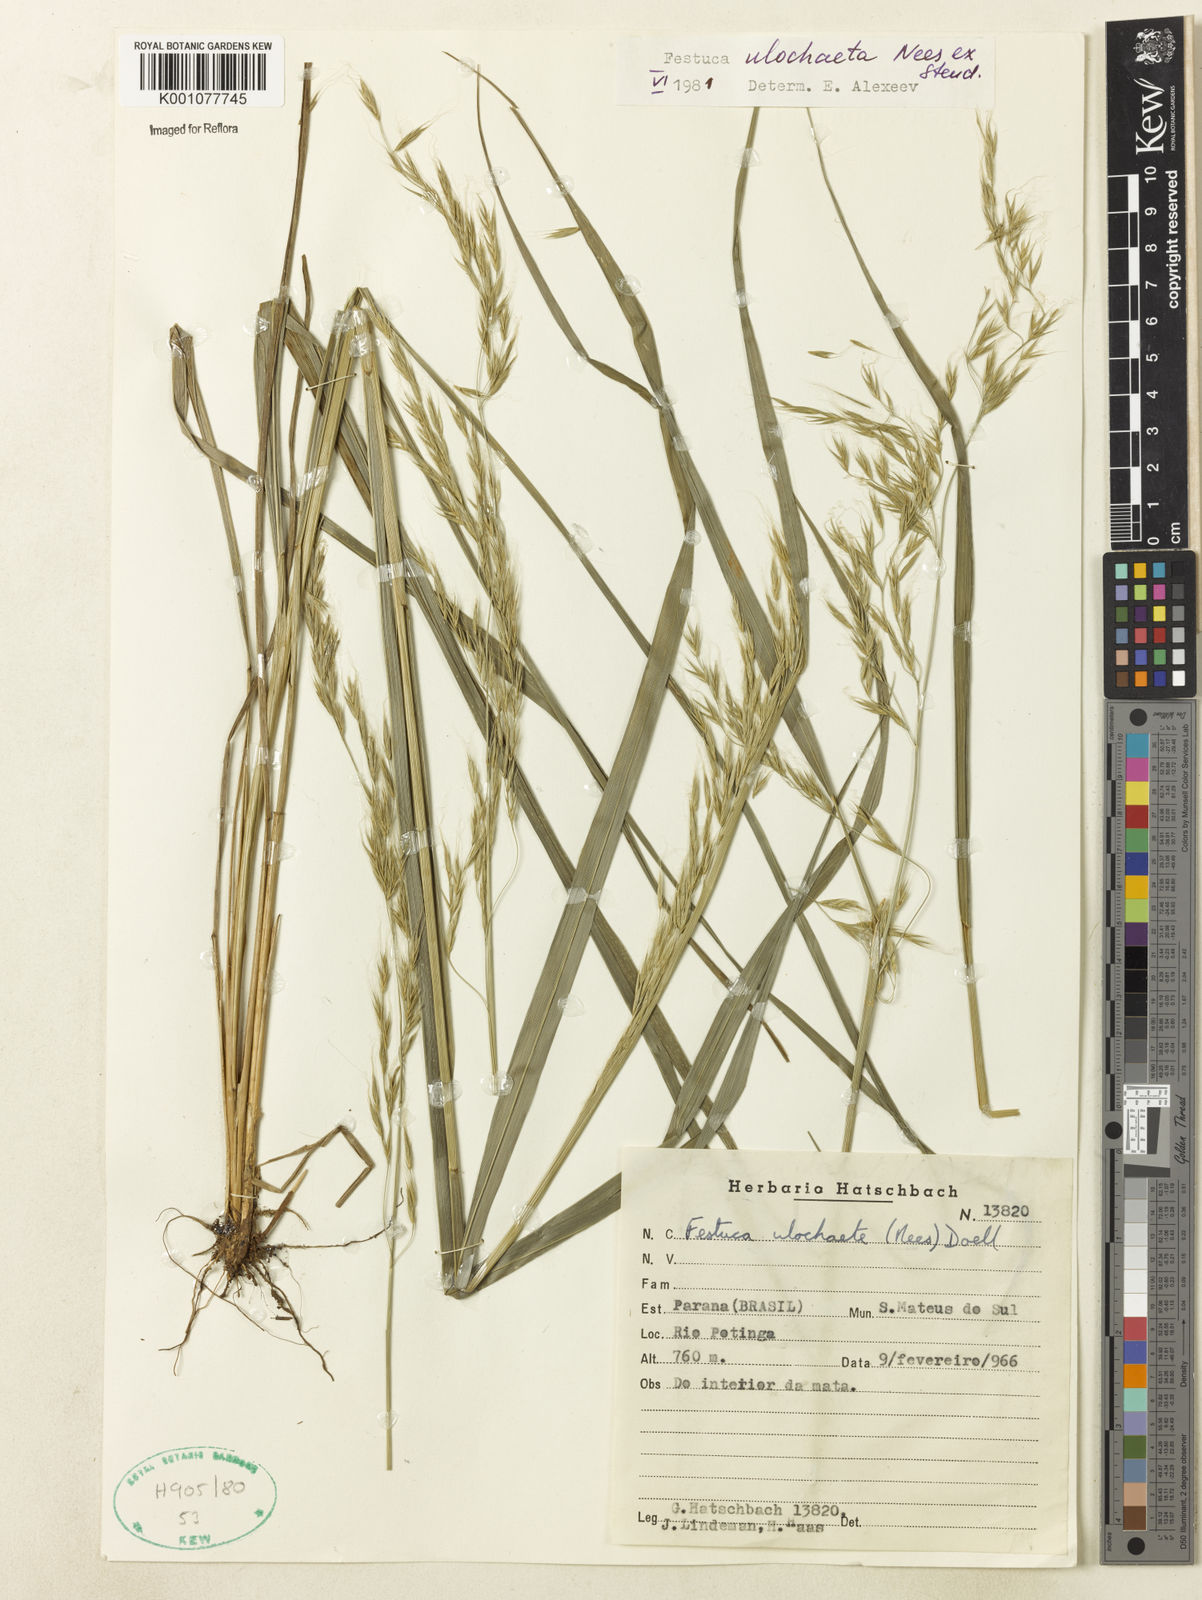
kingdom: Plantae
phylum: Tracheophyta
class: Liliopsida
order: Poales
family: Poaceae
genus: Festuca
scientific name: Festuca ulochaeta
